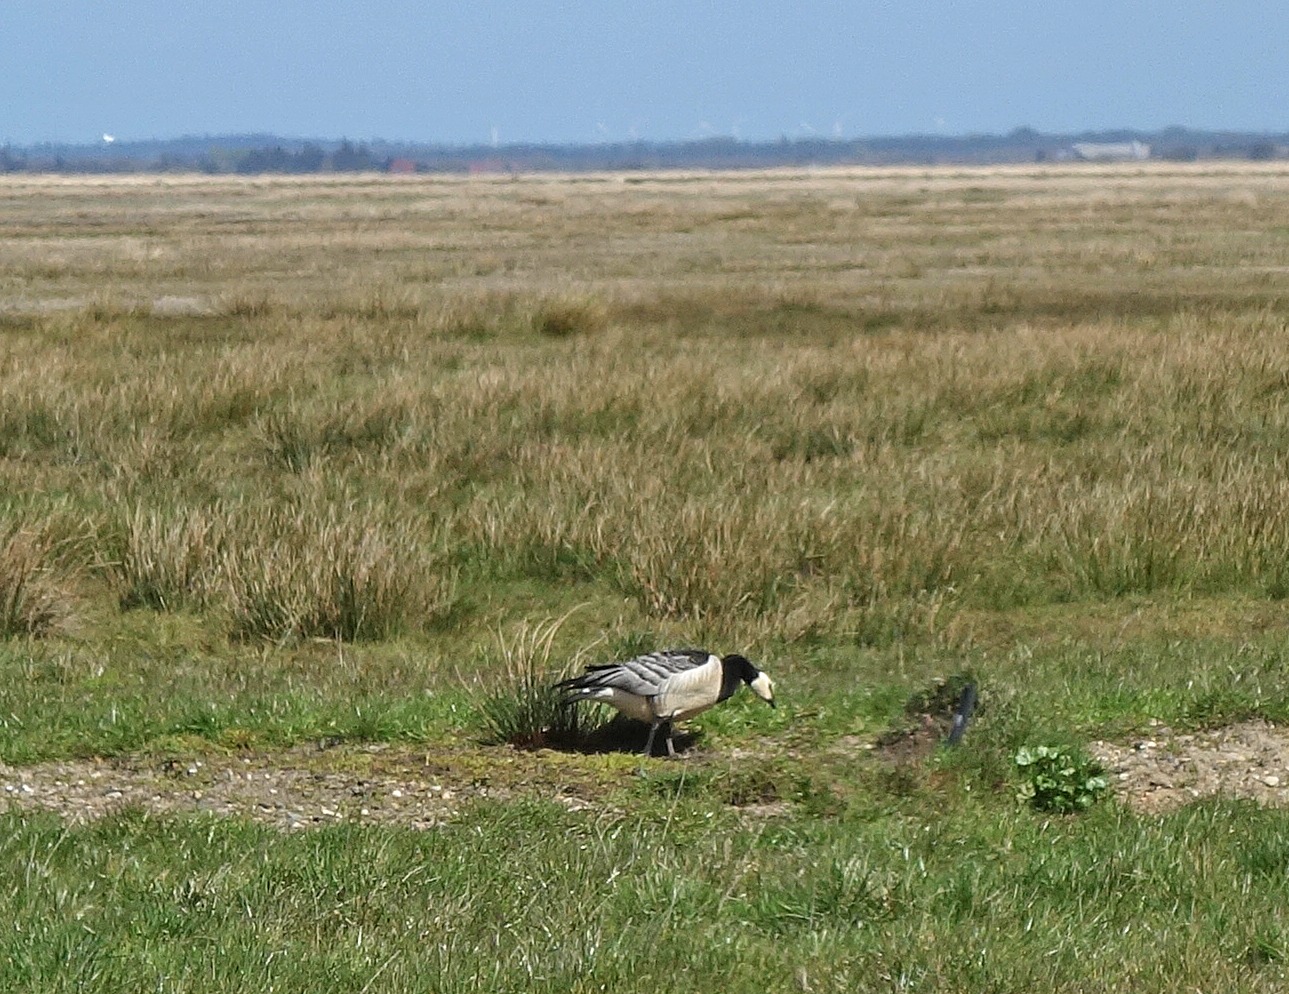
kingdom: Animalia
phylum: Chordata
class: Aves
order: Anseriformes
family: Anatidae
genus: Branta
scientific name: Branta leucopsis
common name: Bramgås
